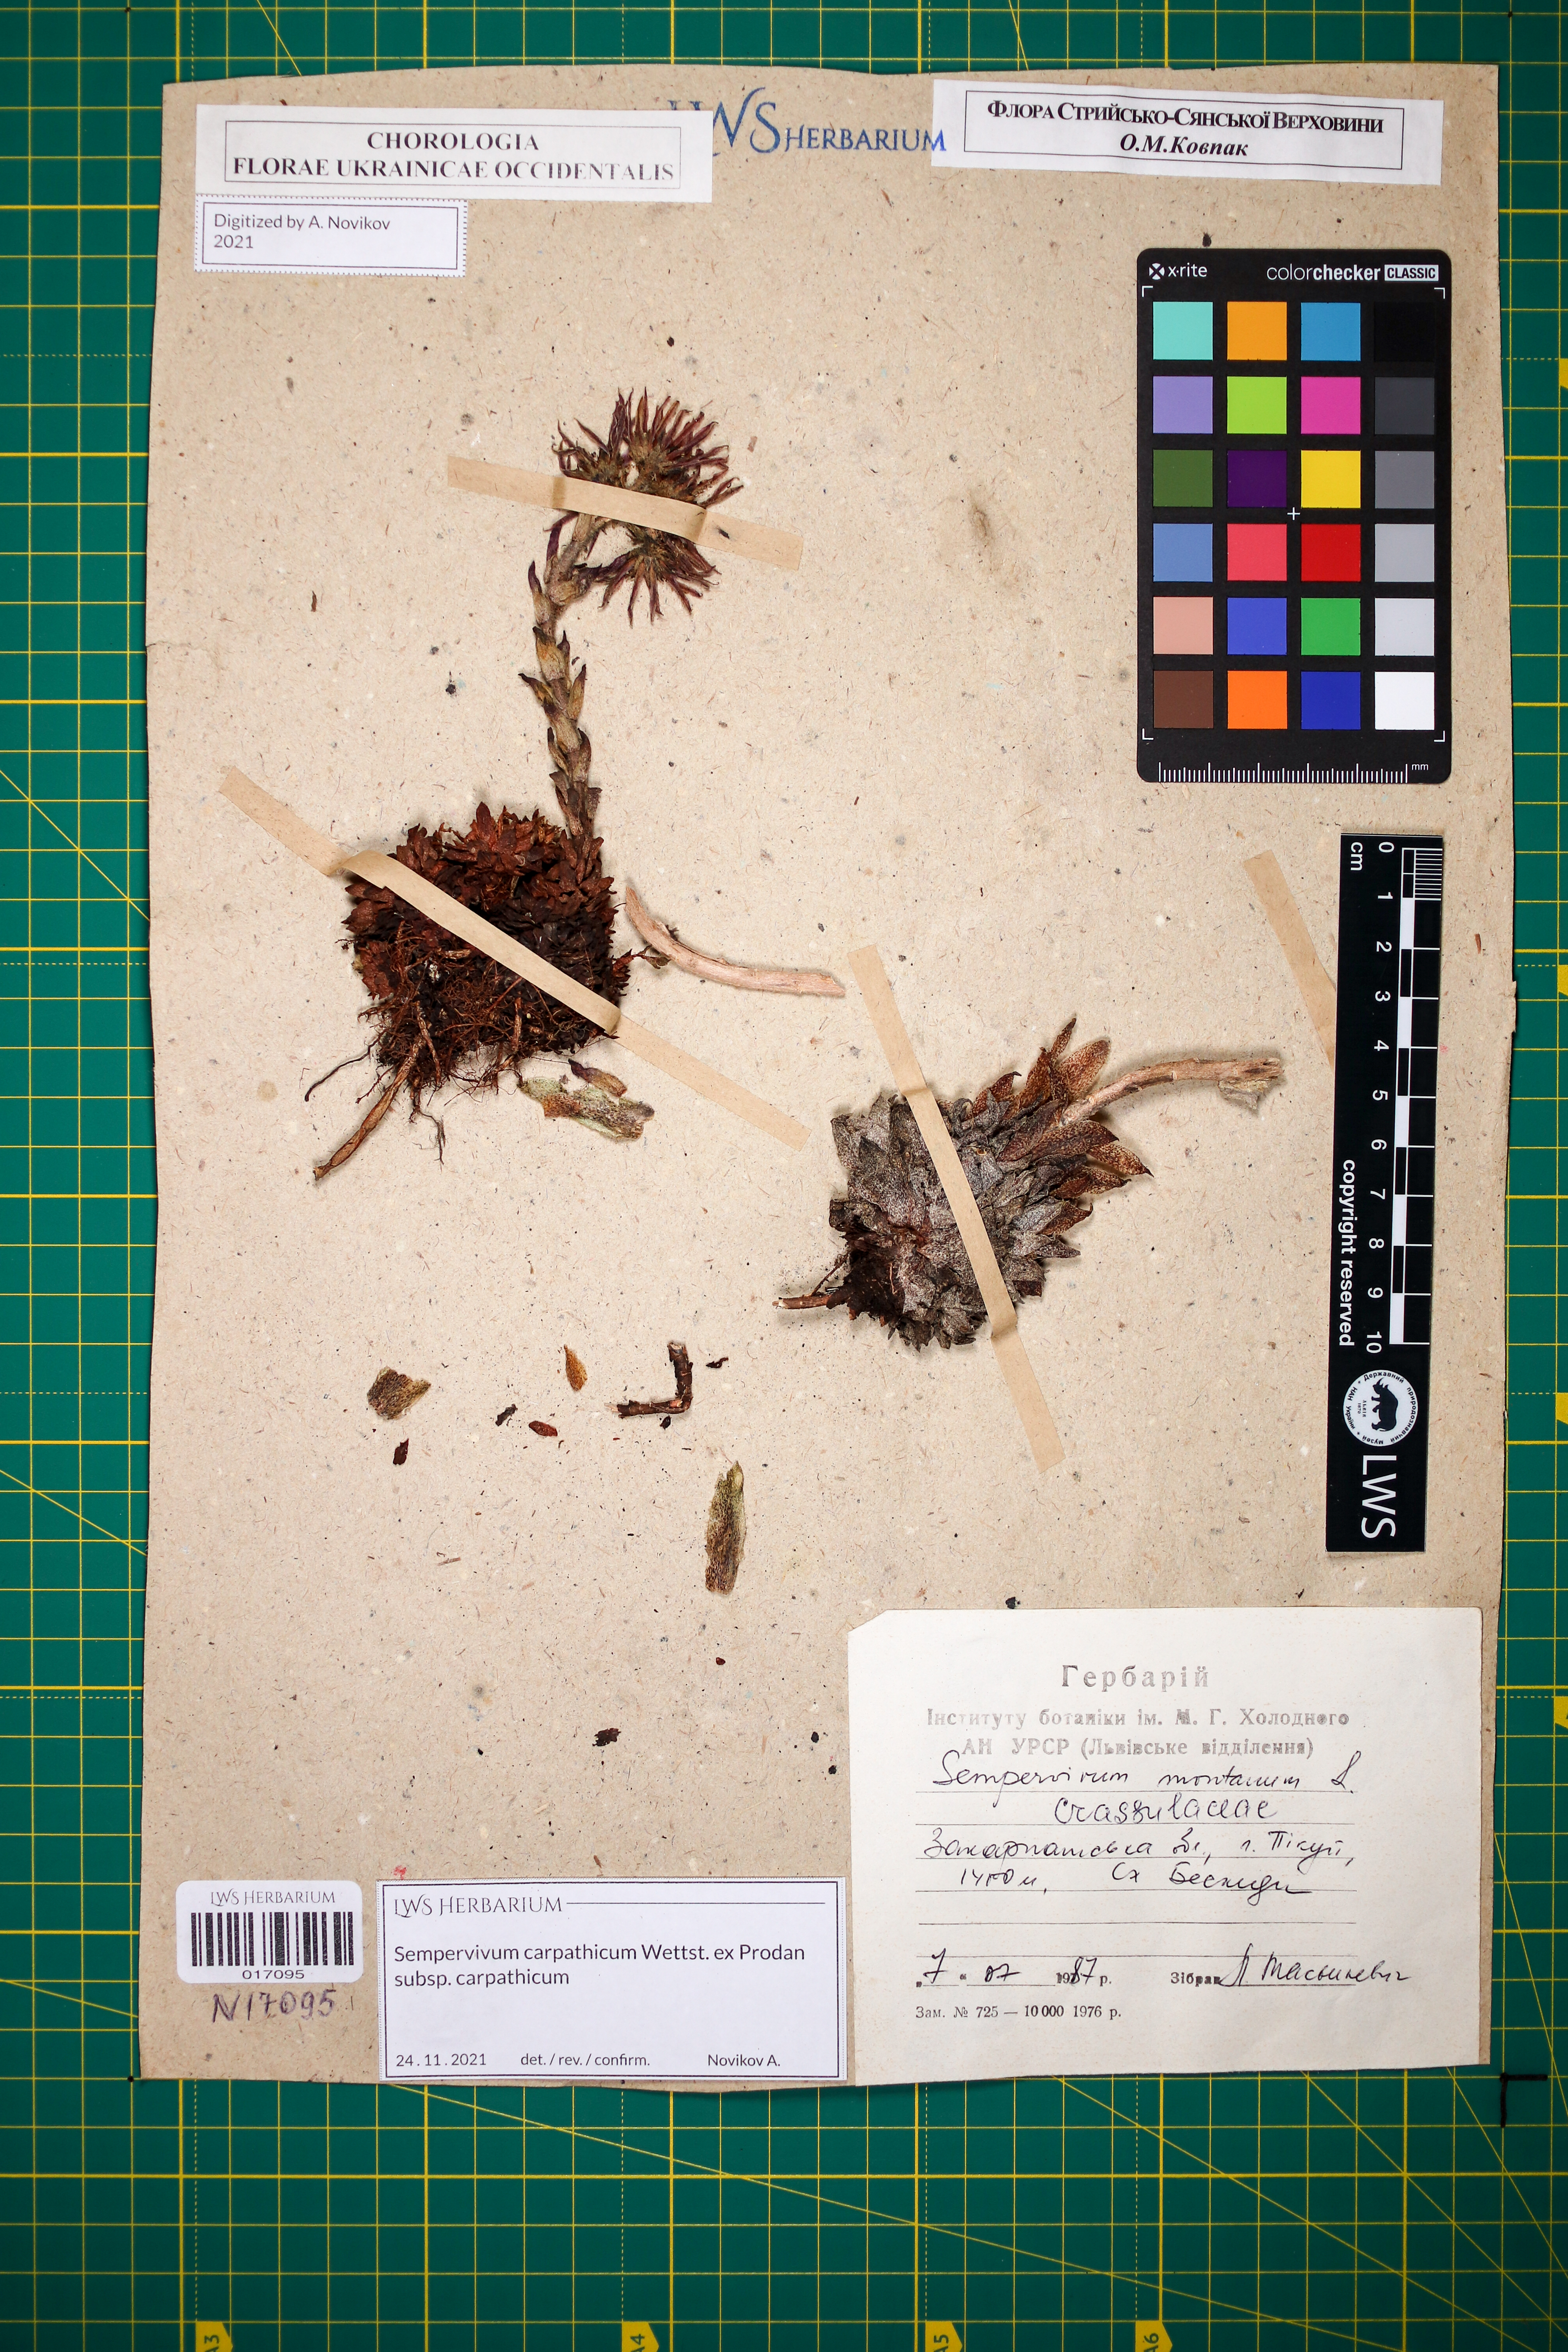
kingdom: Plantae
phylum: Tracheophyta
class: Magnoliopsida
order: Saxifragales
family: Crassulaceae
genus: Sempervivum
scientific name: Sempervivum montanum
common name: Mountain house-leek
